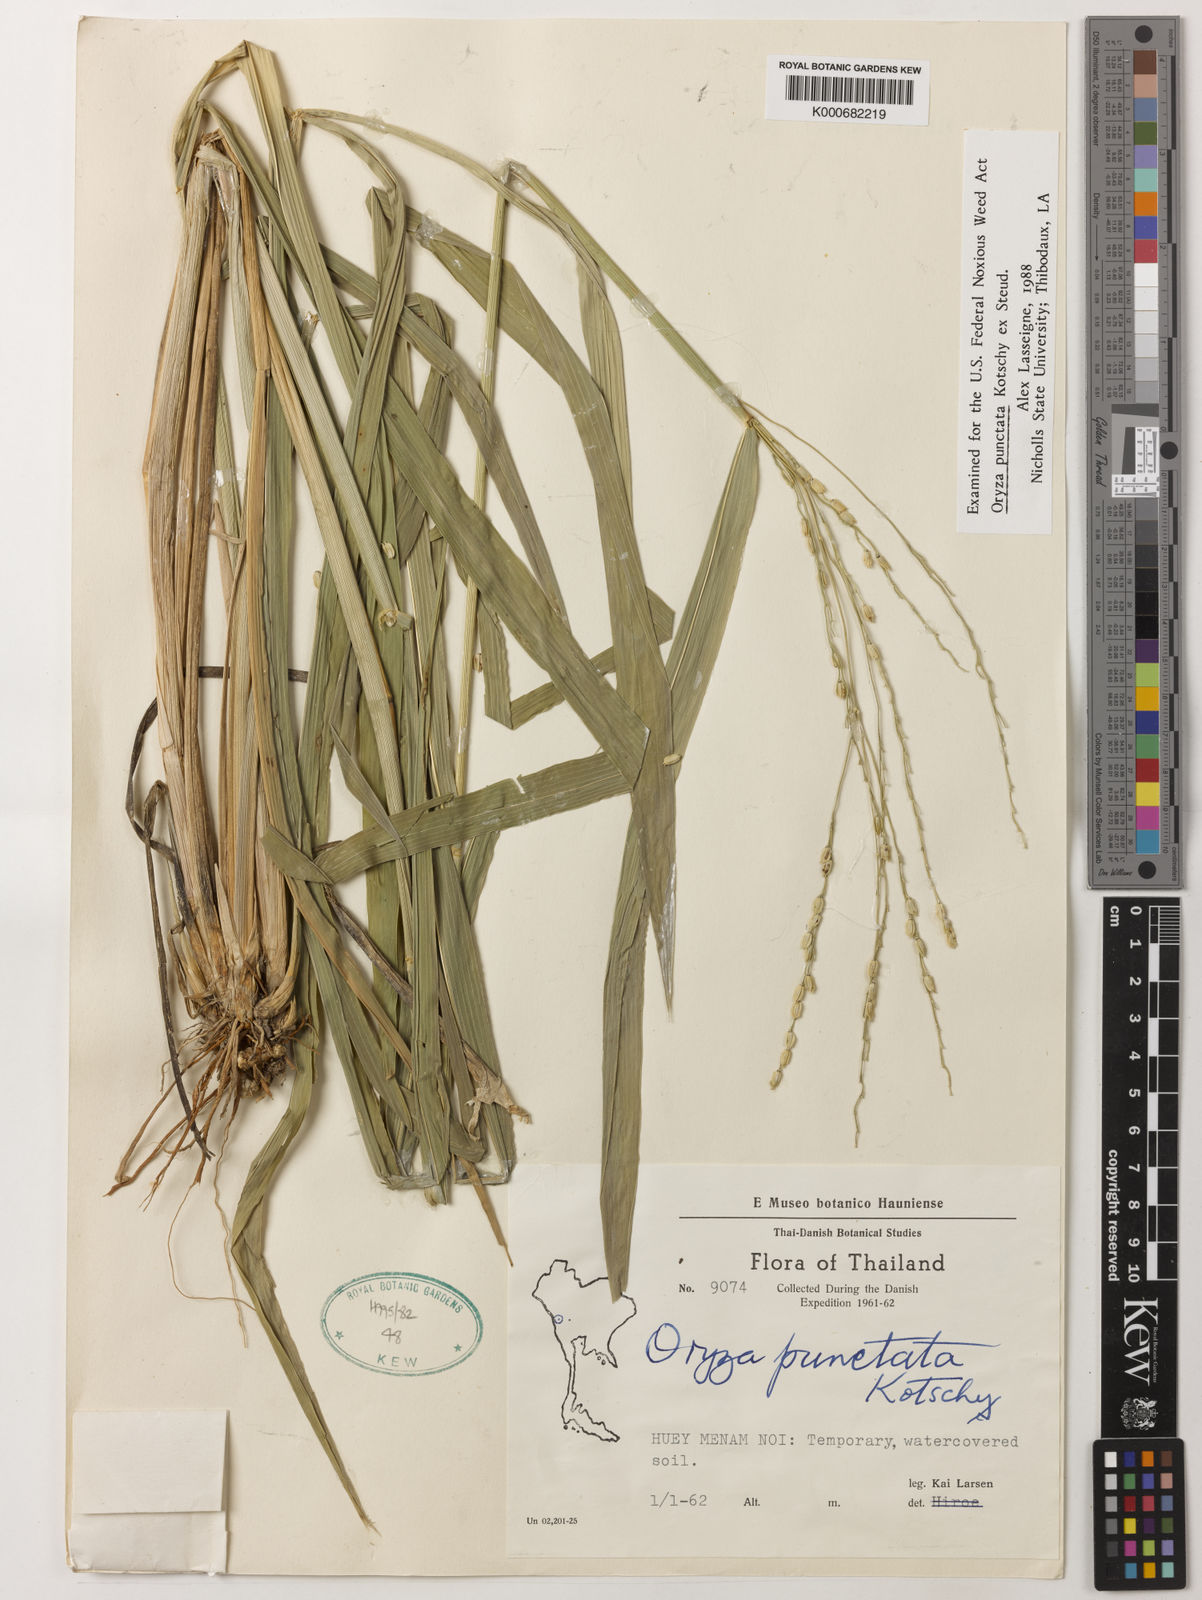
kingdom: Plantae
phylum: Tracheophyta
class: Liliopsida
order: Poales
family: Poaceae
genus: Oryza
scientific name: Oryza punctata
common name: Red rice
